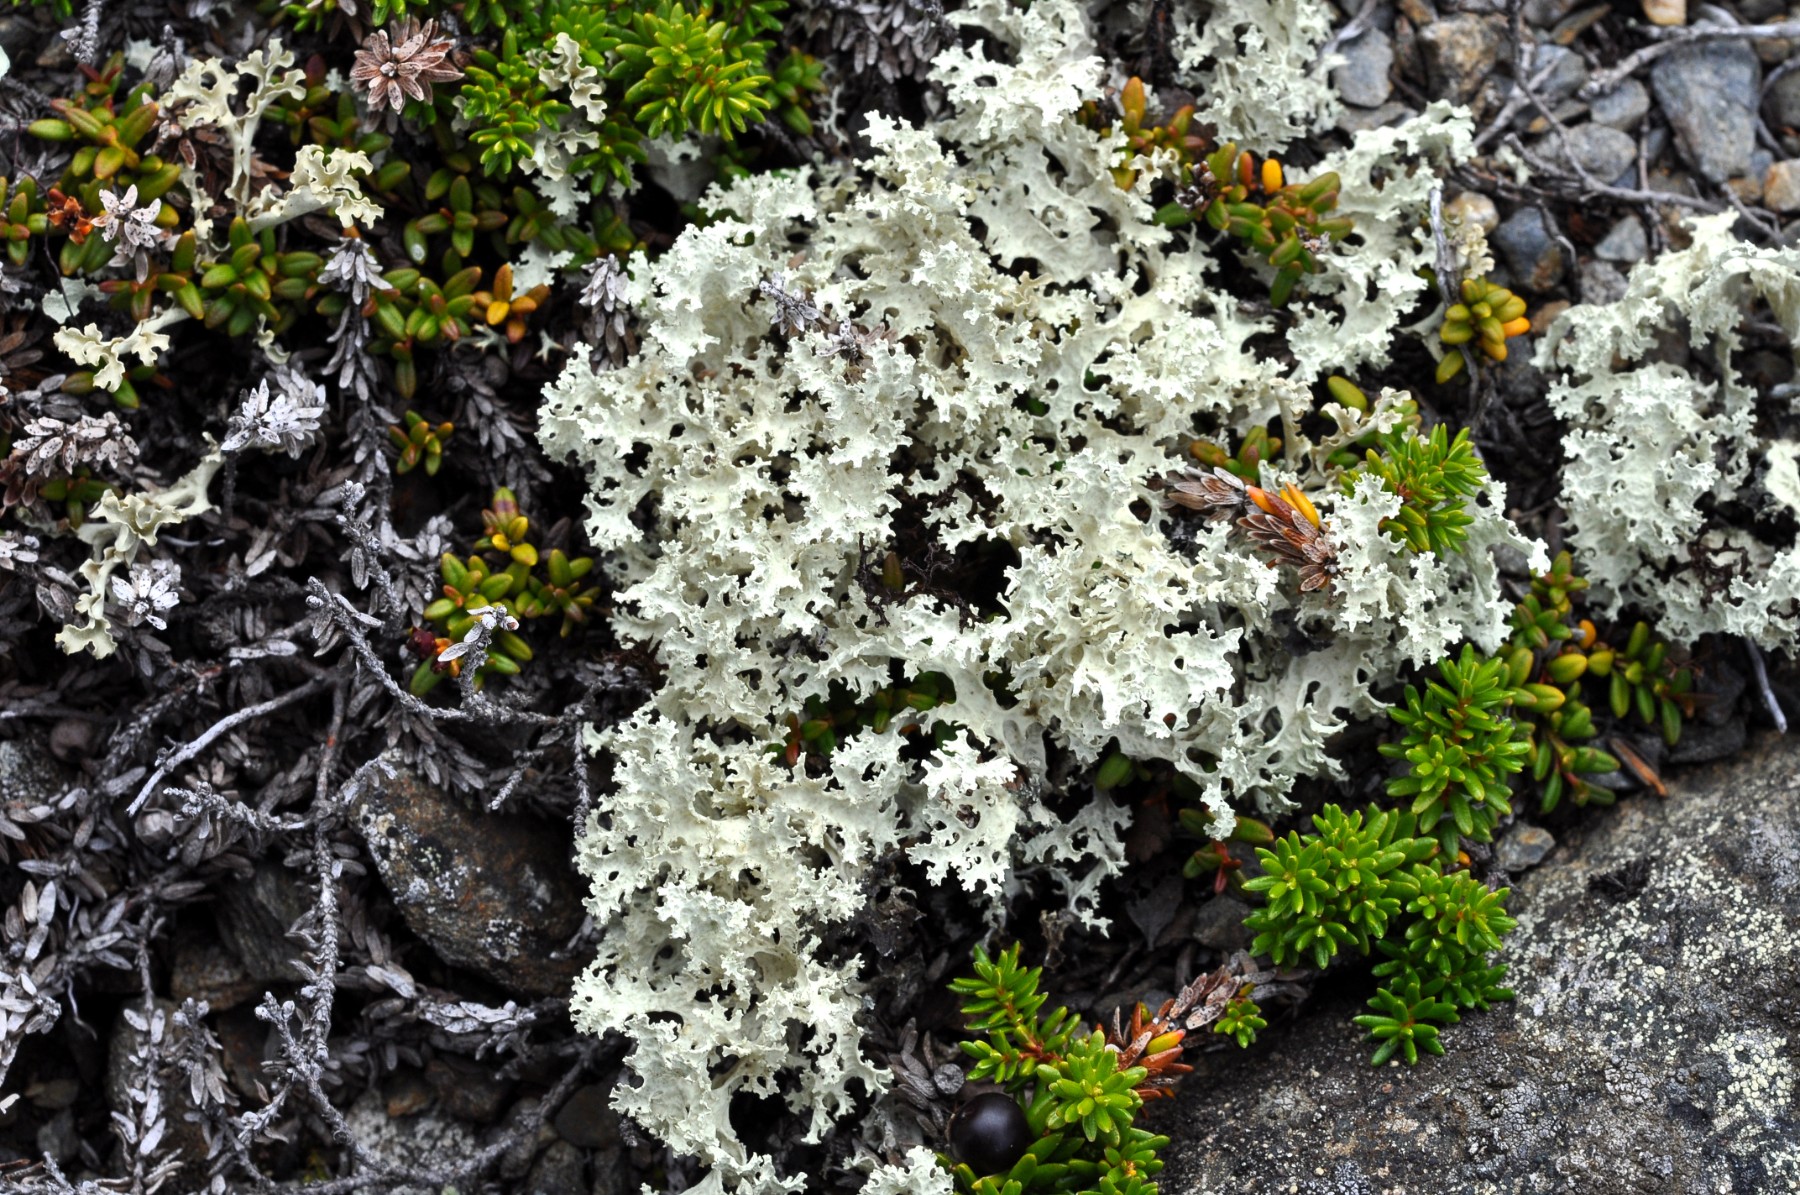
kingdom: Fungi
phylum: Ascomycota
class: Lecanoromycetes
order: Lecanorales
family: Parmeliaceae
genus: Nephromopsis
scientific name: Nephromopsis nivalis
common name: sne-kruslav
